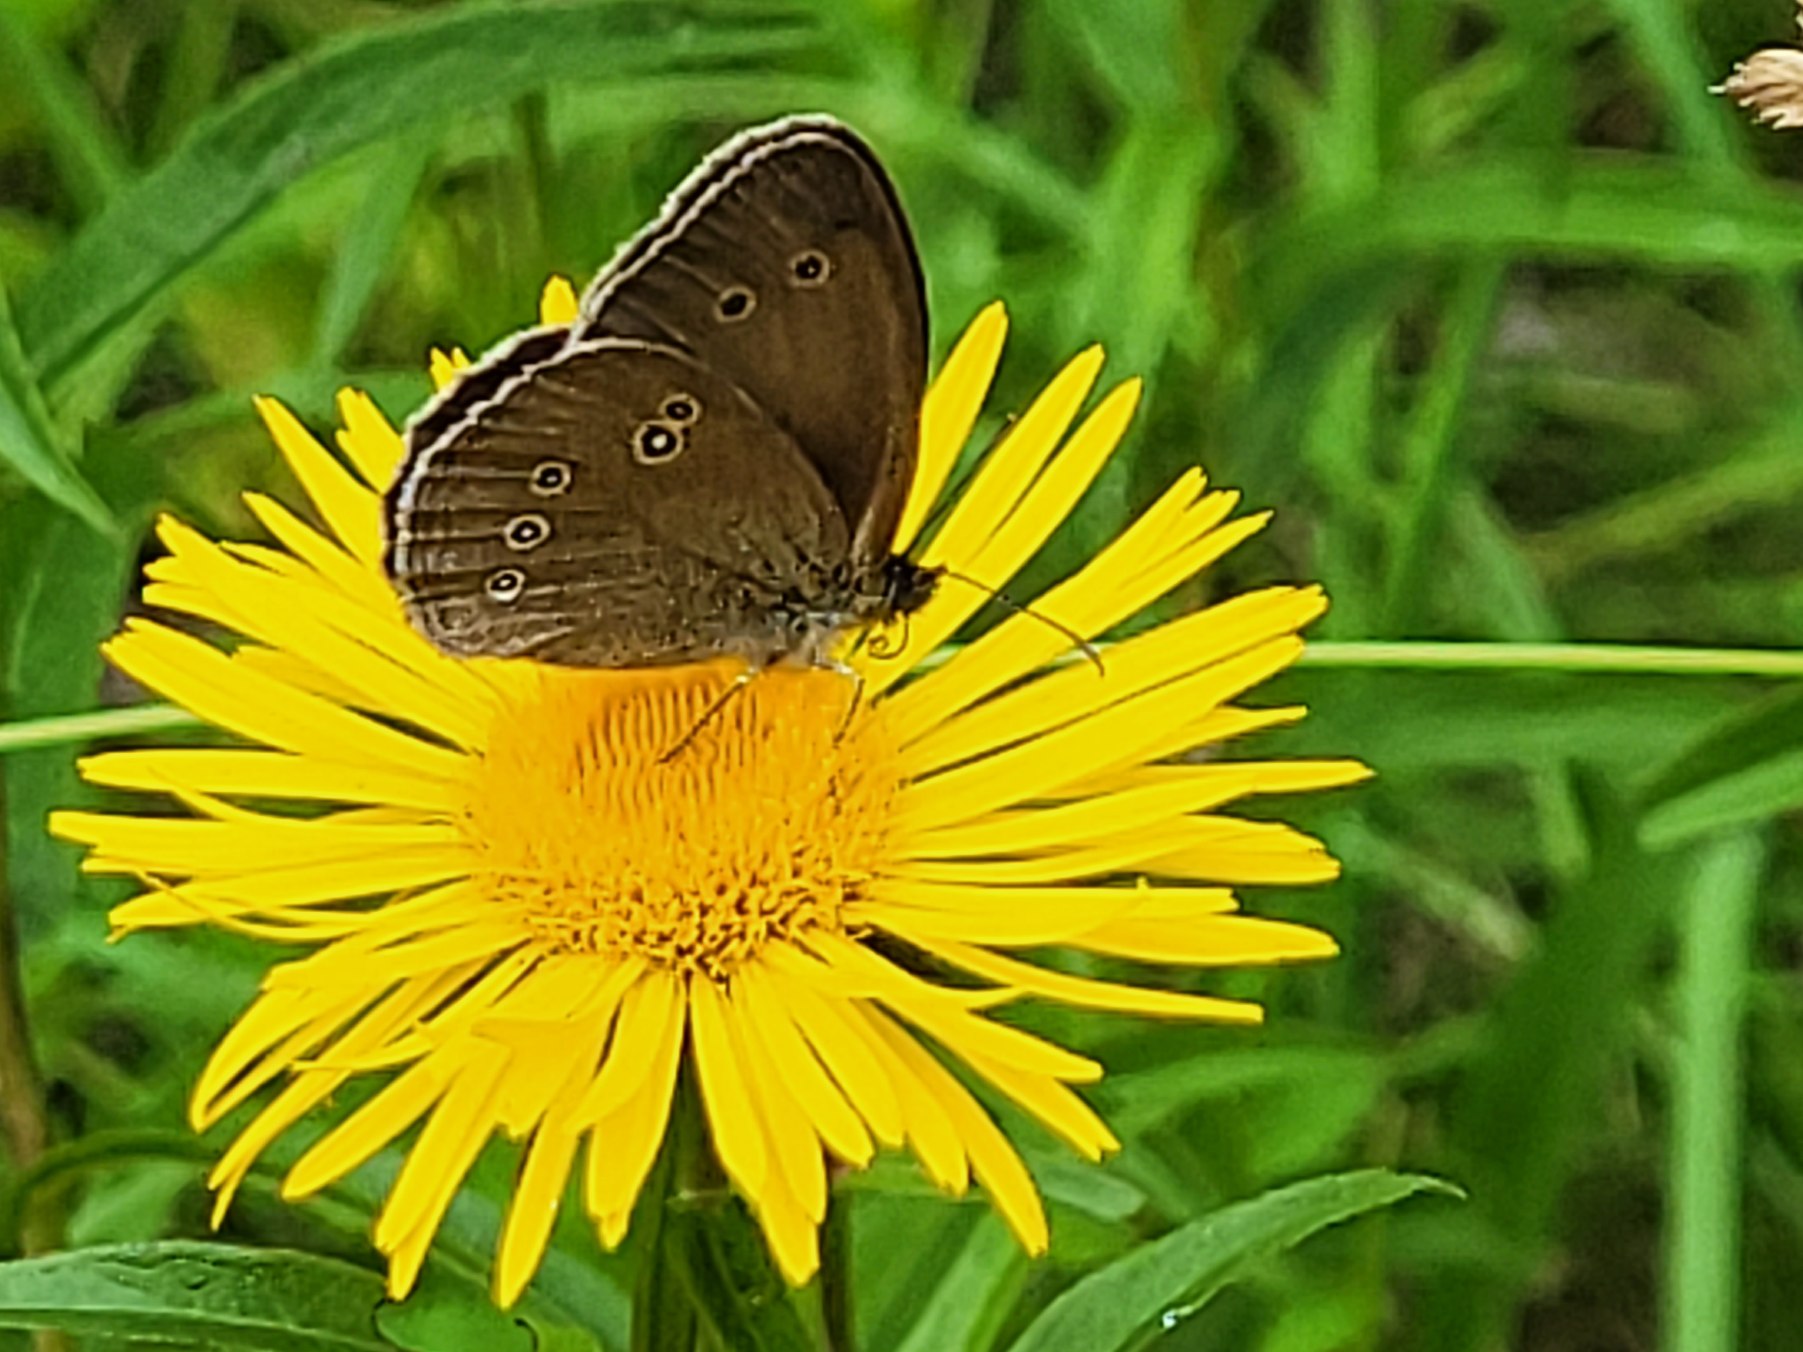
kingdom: Animalia
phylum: Arthropoda
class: Insecta
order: Lepidoptera
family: Nymphalidae
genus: Aphantopus
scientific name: Aphantopus hyperantus
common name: Engrandøje
